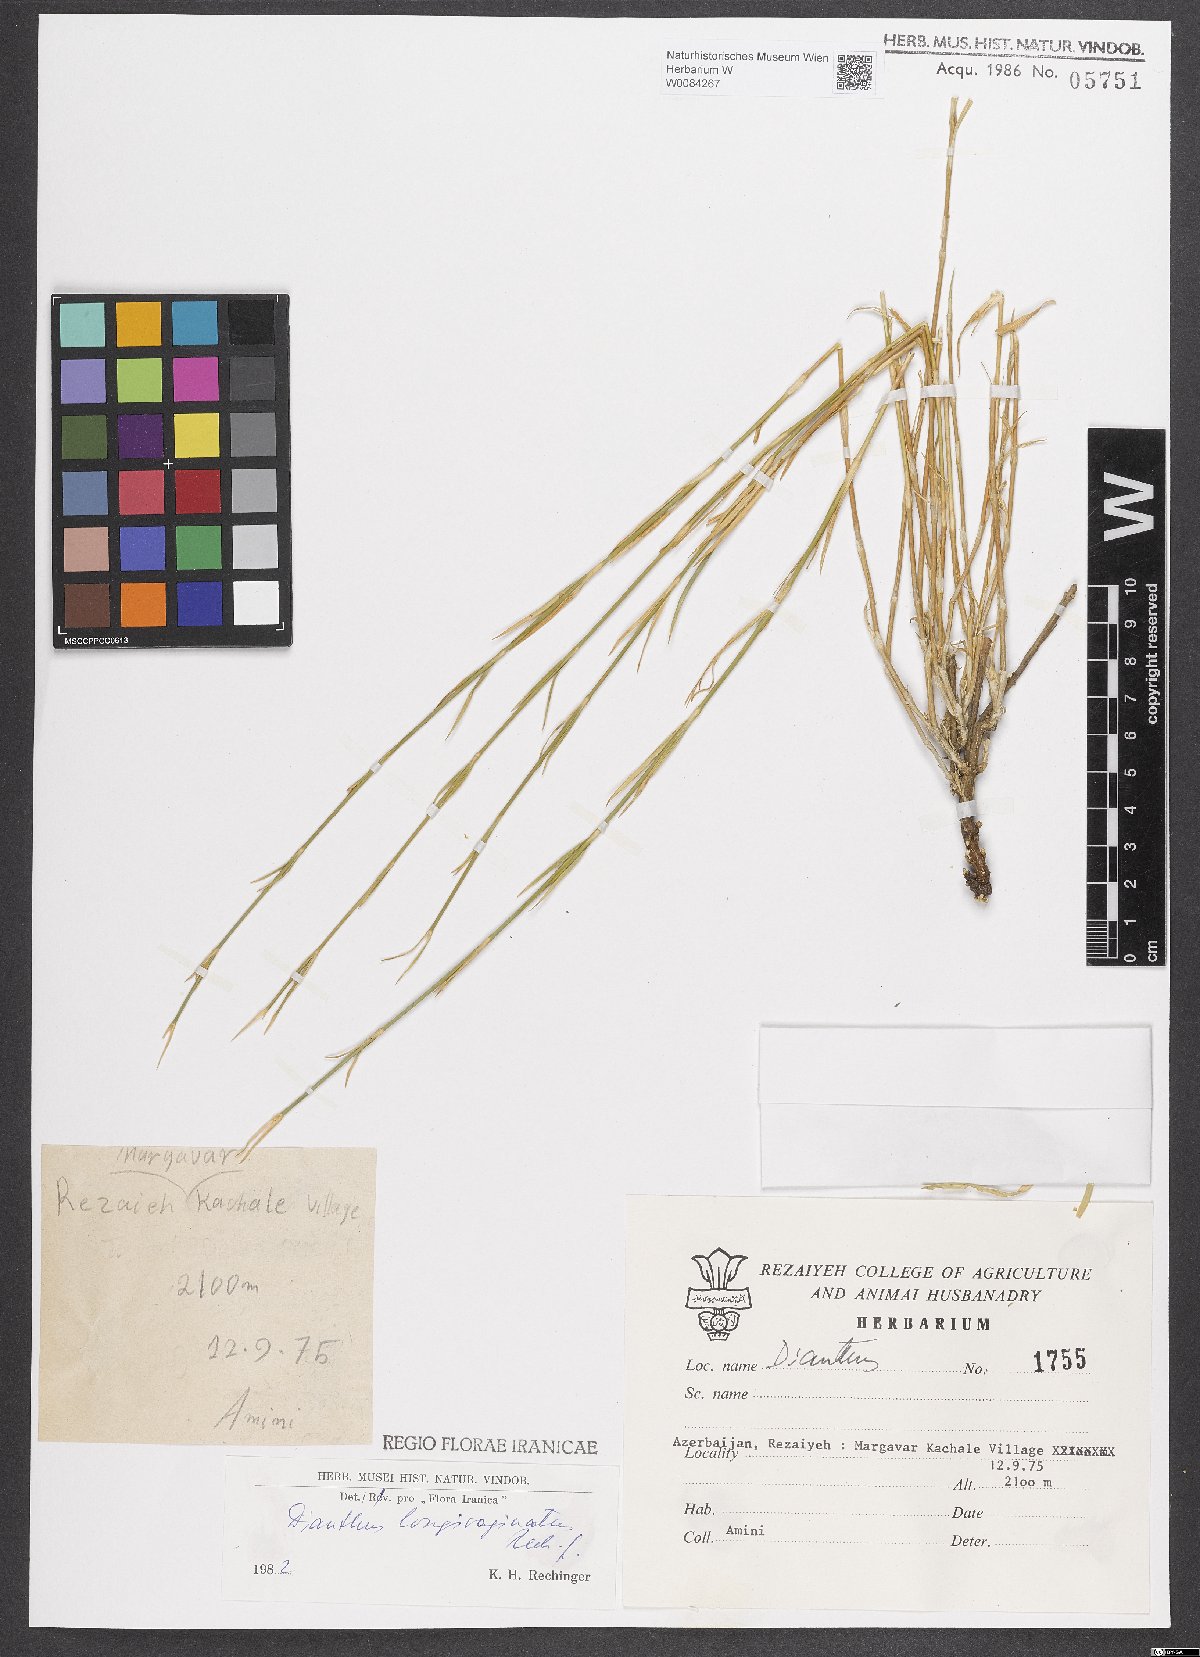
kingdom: Plantae
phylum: Tracheophyta
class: Magnoliopsida
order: Caryophyllales
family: Caryophyllaceae
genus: Dianthus
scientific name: Dianthus longivaginatus
